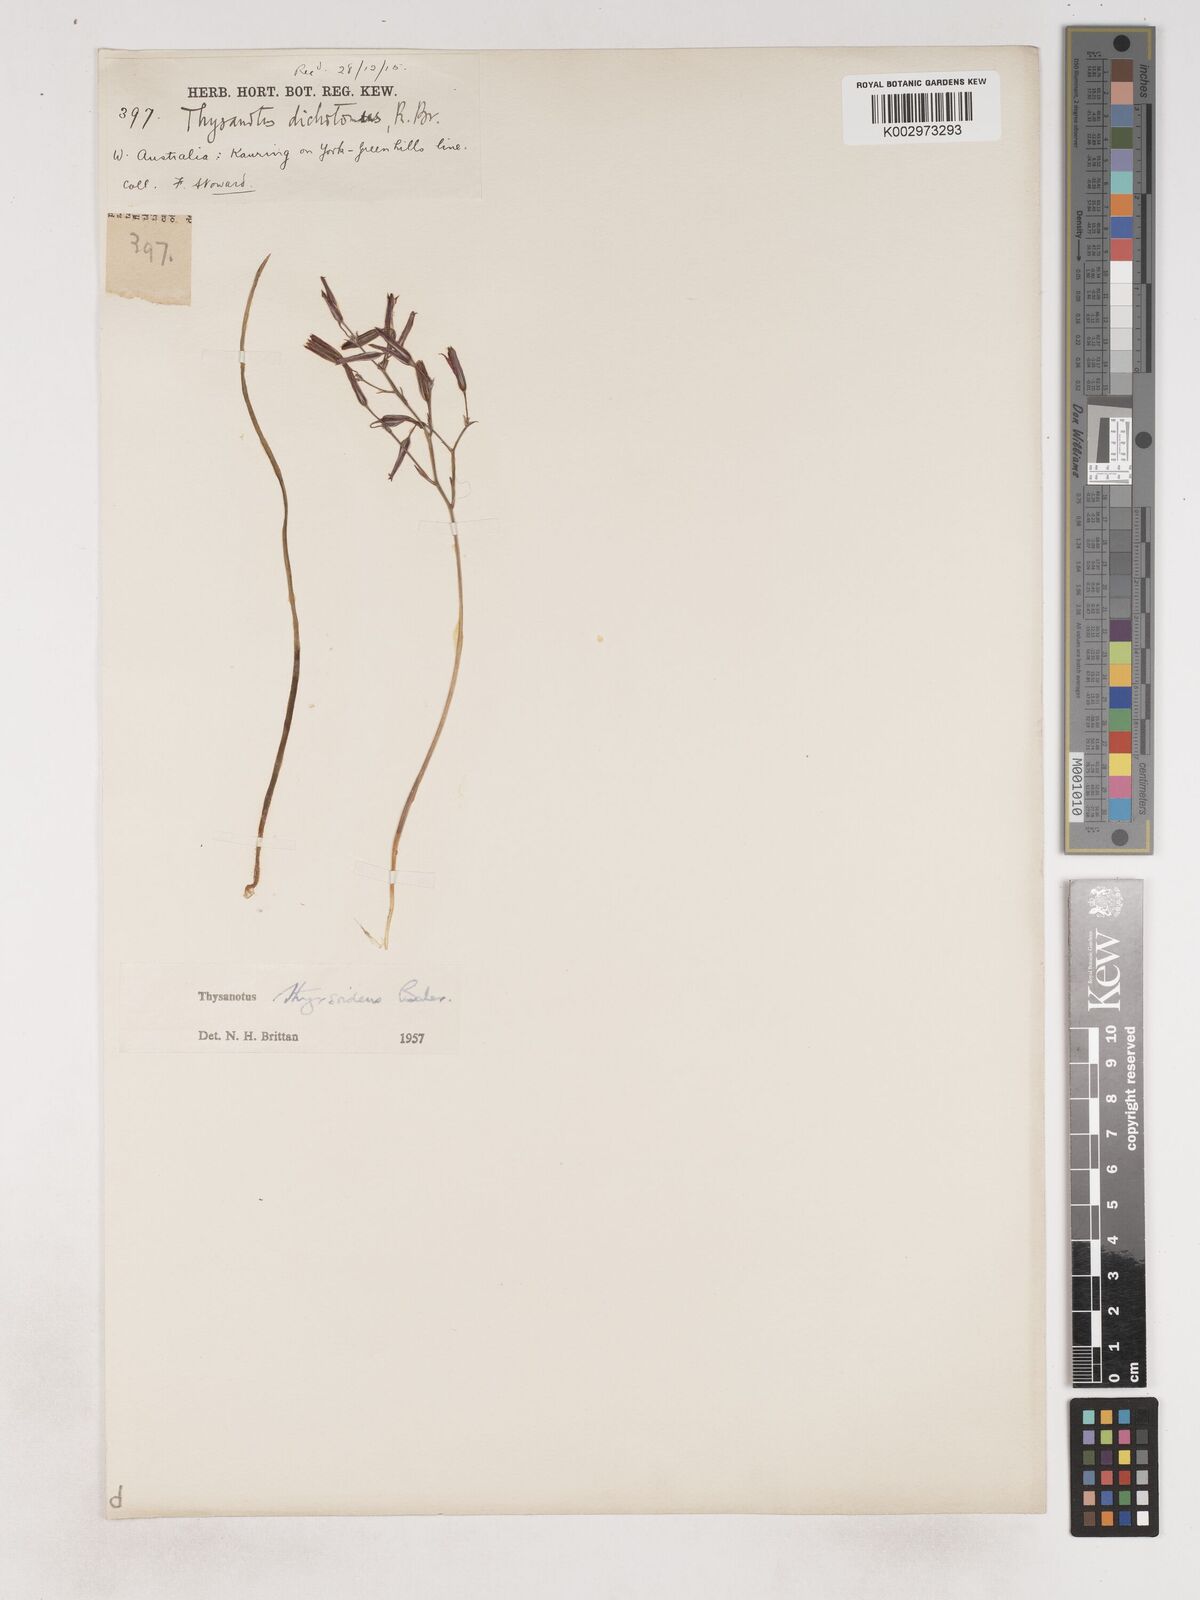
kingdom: Plantae
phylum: Tracheophyta
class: Liliopsida
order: Asparagales
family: Asparagaceae
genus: Thysanotus
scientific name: Thysanotus thyrsoideus
